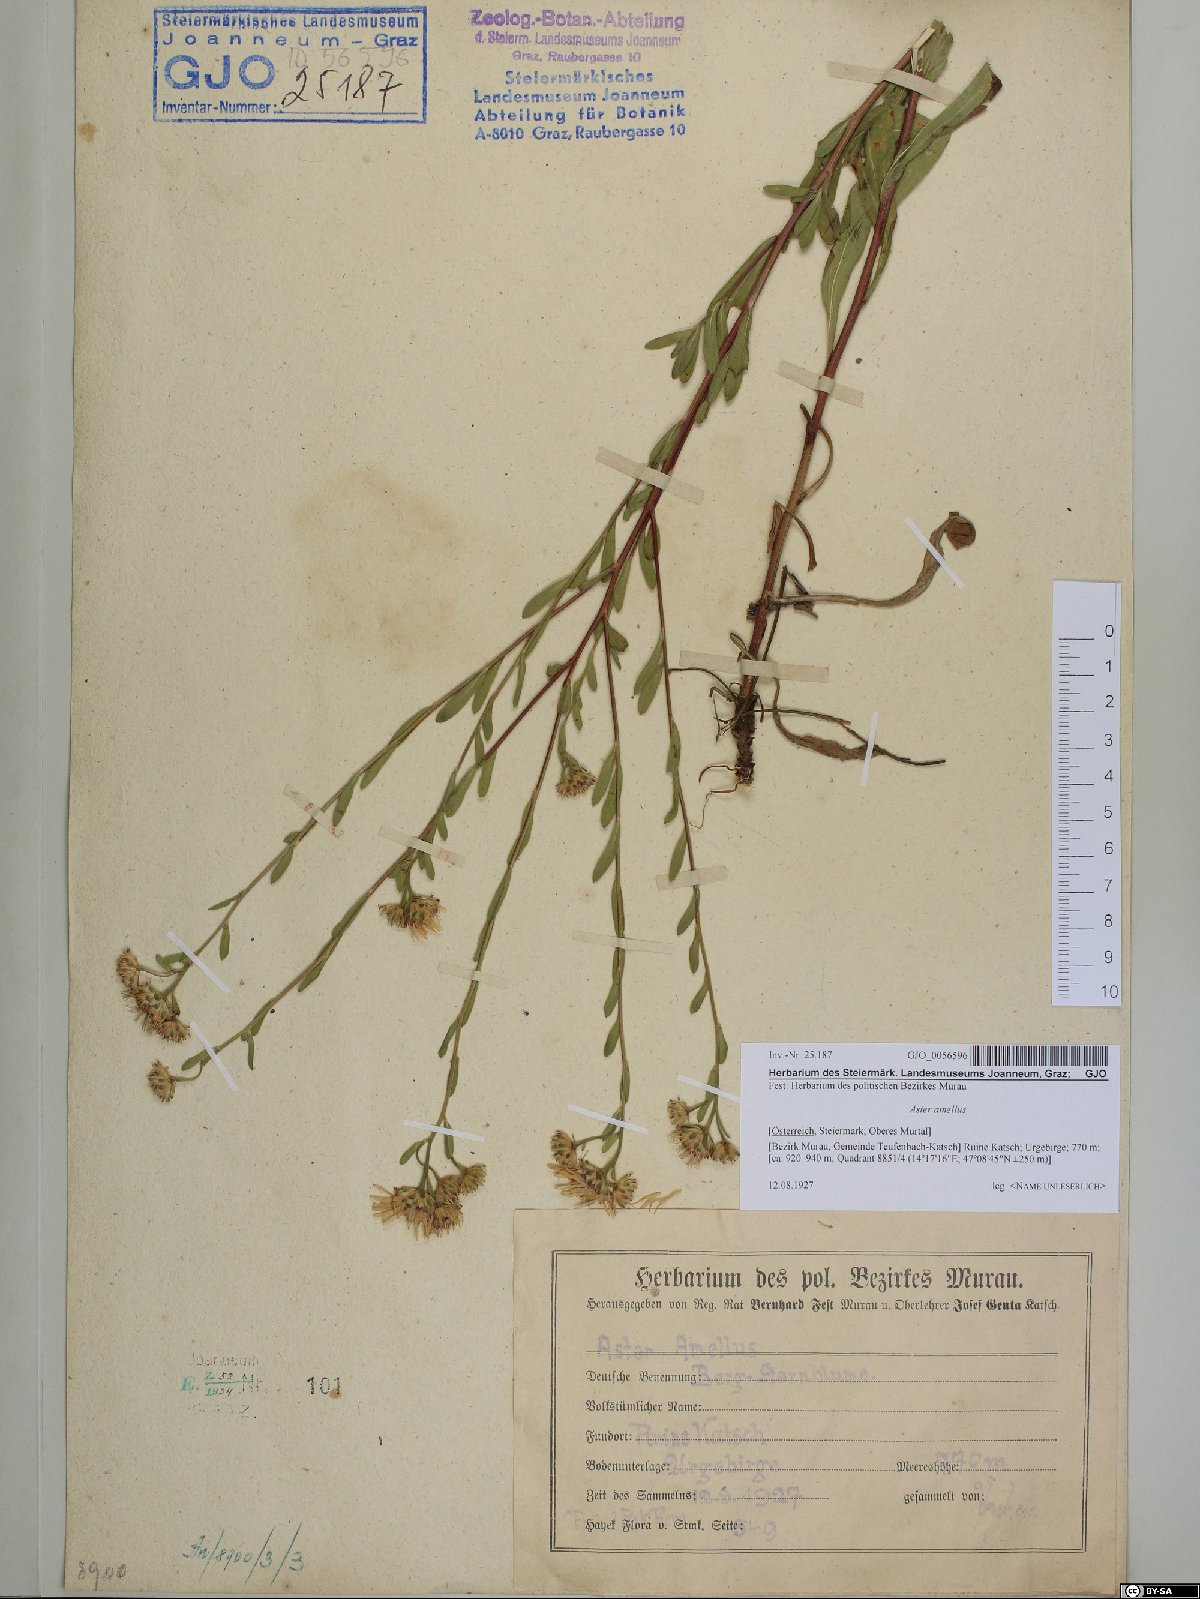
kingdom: Plantae
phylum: Tracheophyta
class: Magnoliopsida
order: Asterales
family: Asteraceae
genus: Aster
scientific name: Aster amellus
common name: European michaelmas daisy
